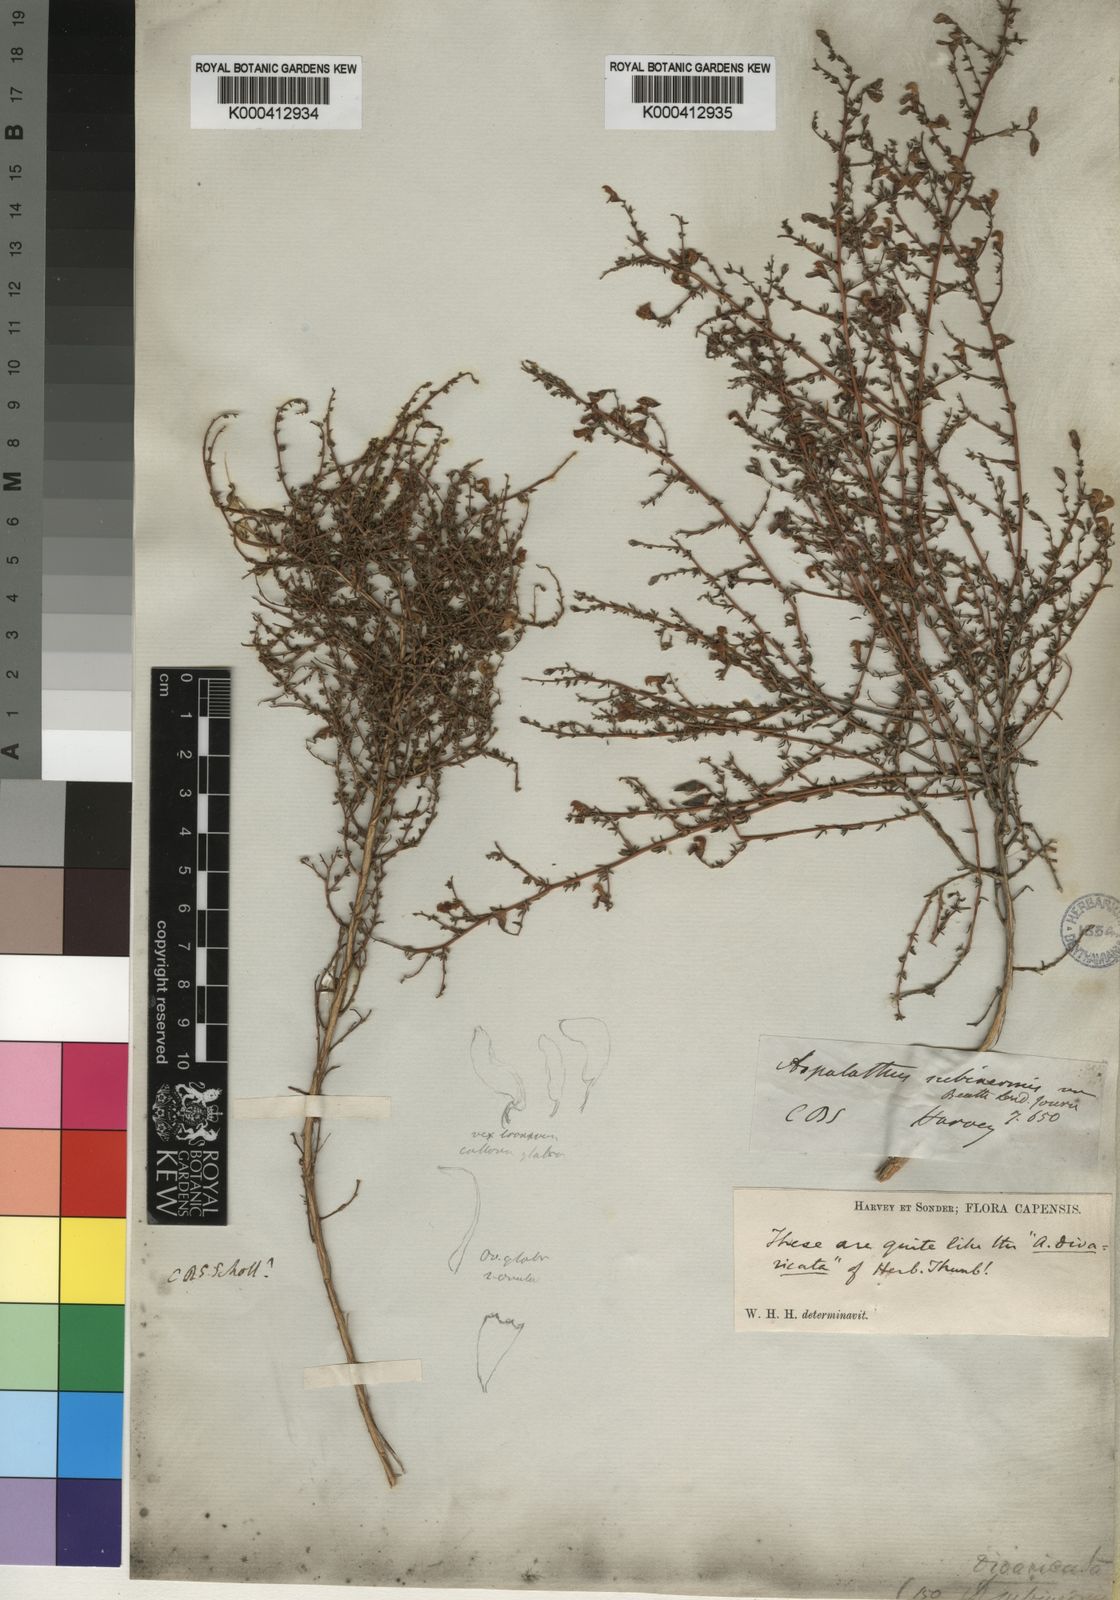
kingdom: Plantae
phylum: Tracheophyta
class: Magnoliopsida
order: Fabales
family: Fabaceae
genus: Aspalathus
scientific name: Aspalathus biflora
